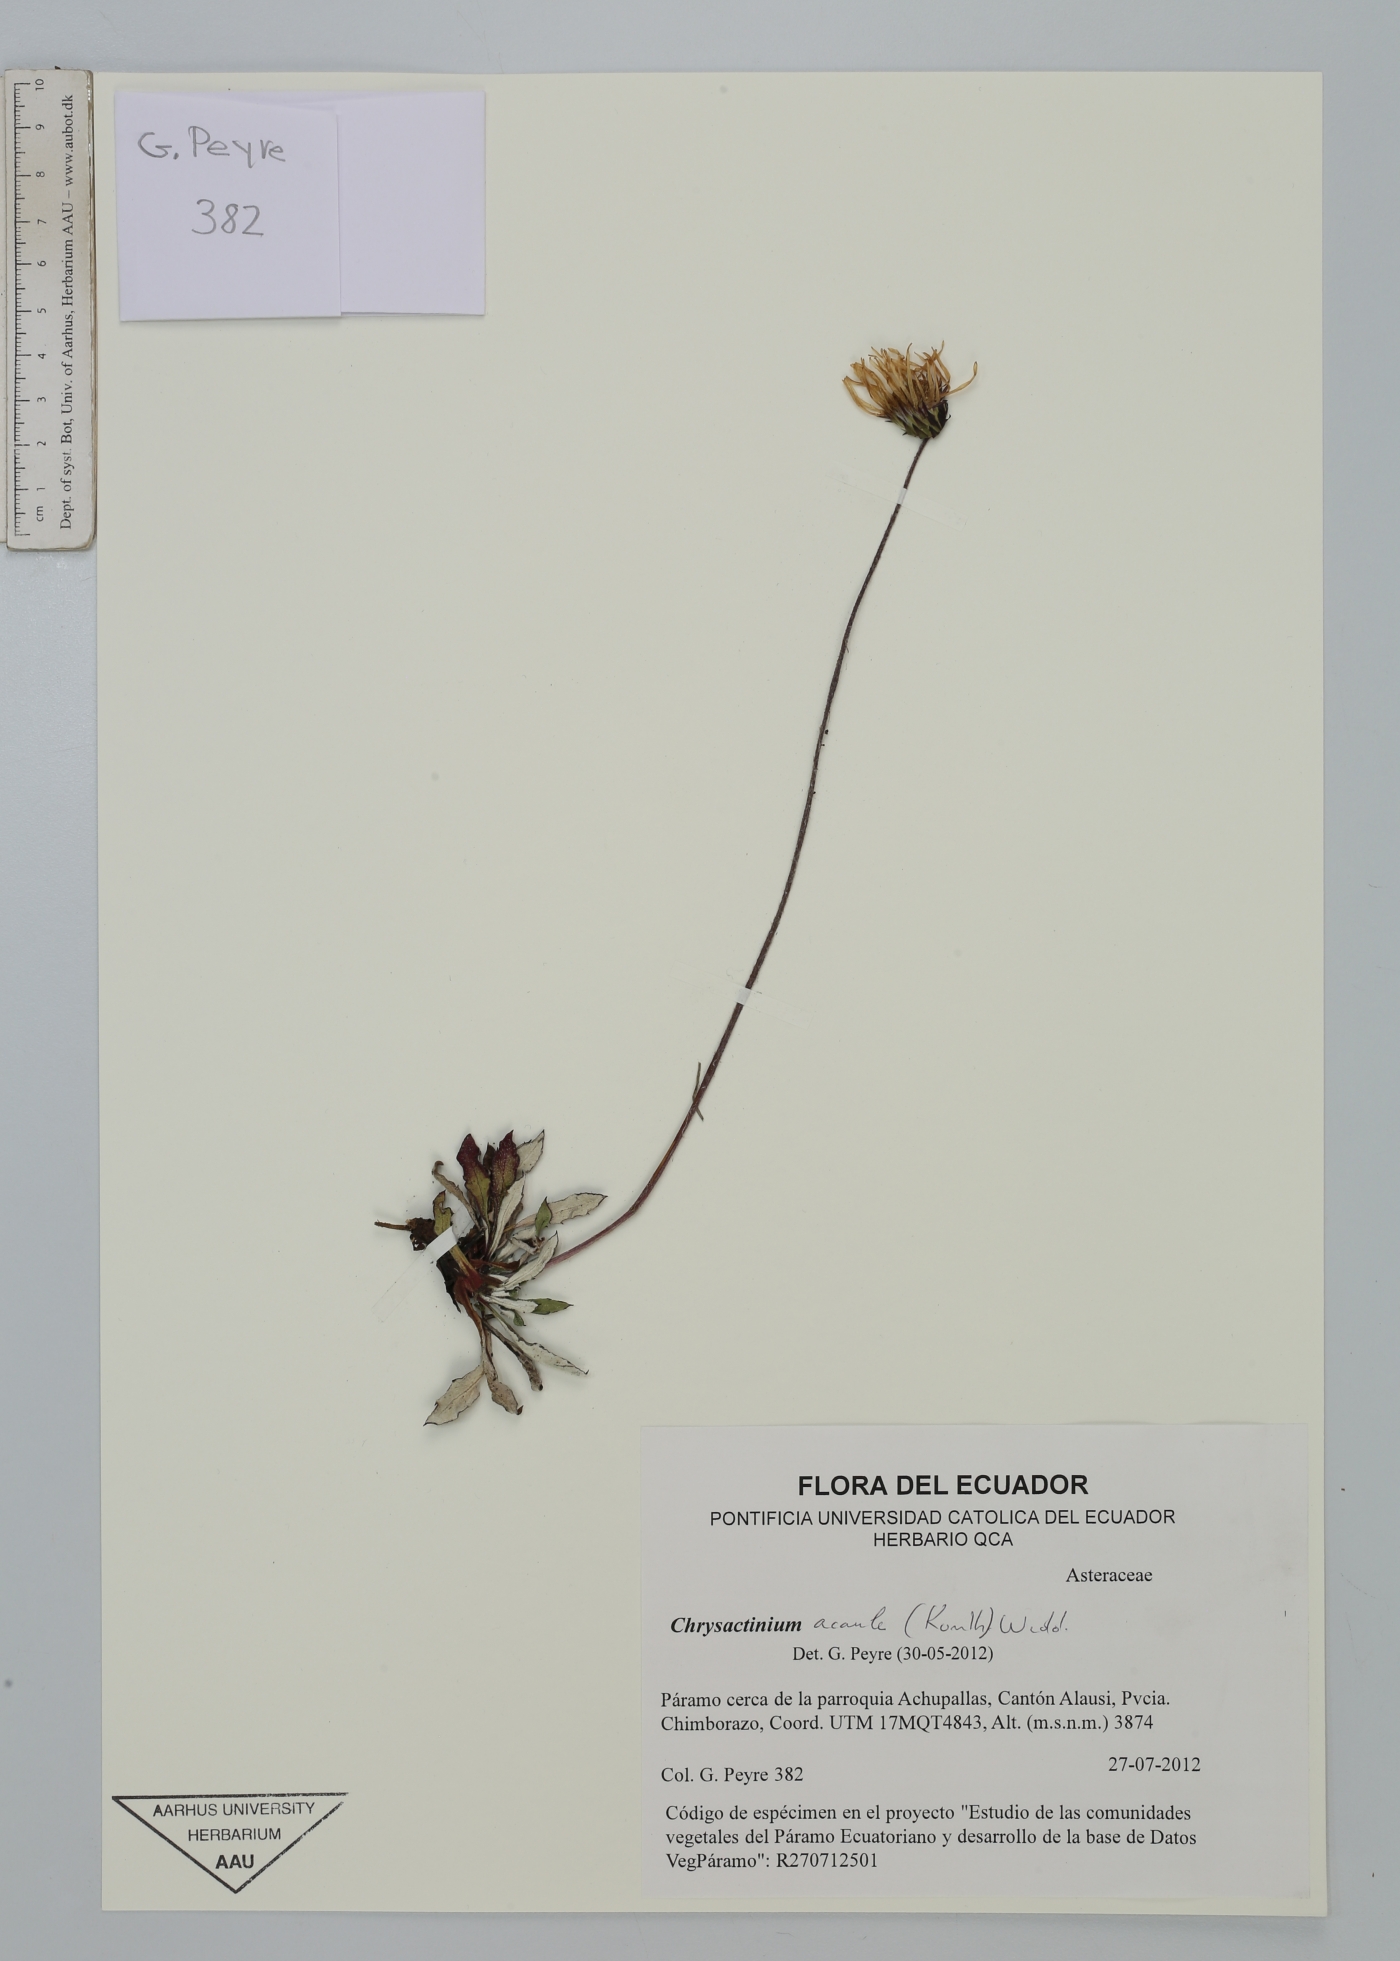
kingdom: Plantae
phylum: Tracheophyta
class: Magnoliopsida
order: Asterales
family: Asteraceae
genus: Chrysactinium
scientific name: Chrysactinium acaule
